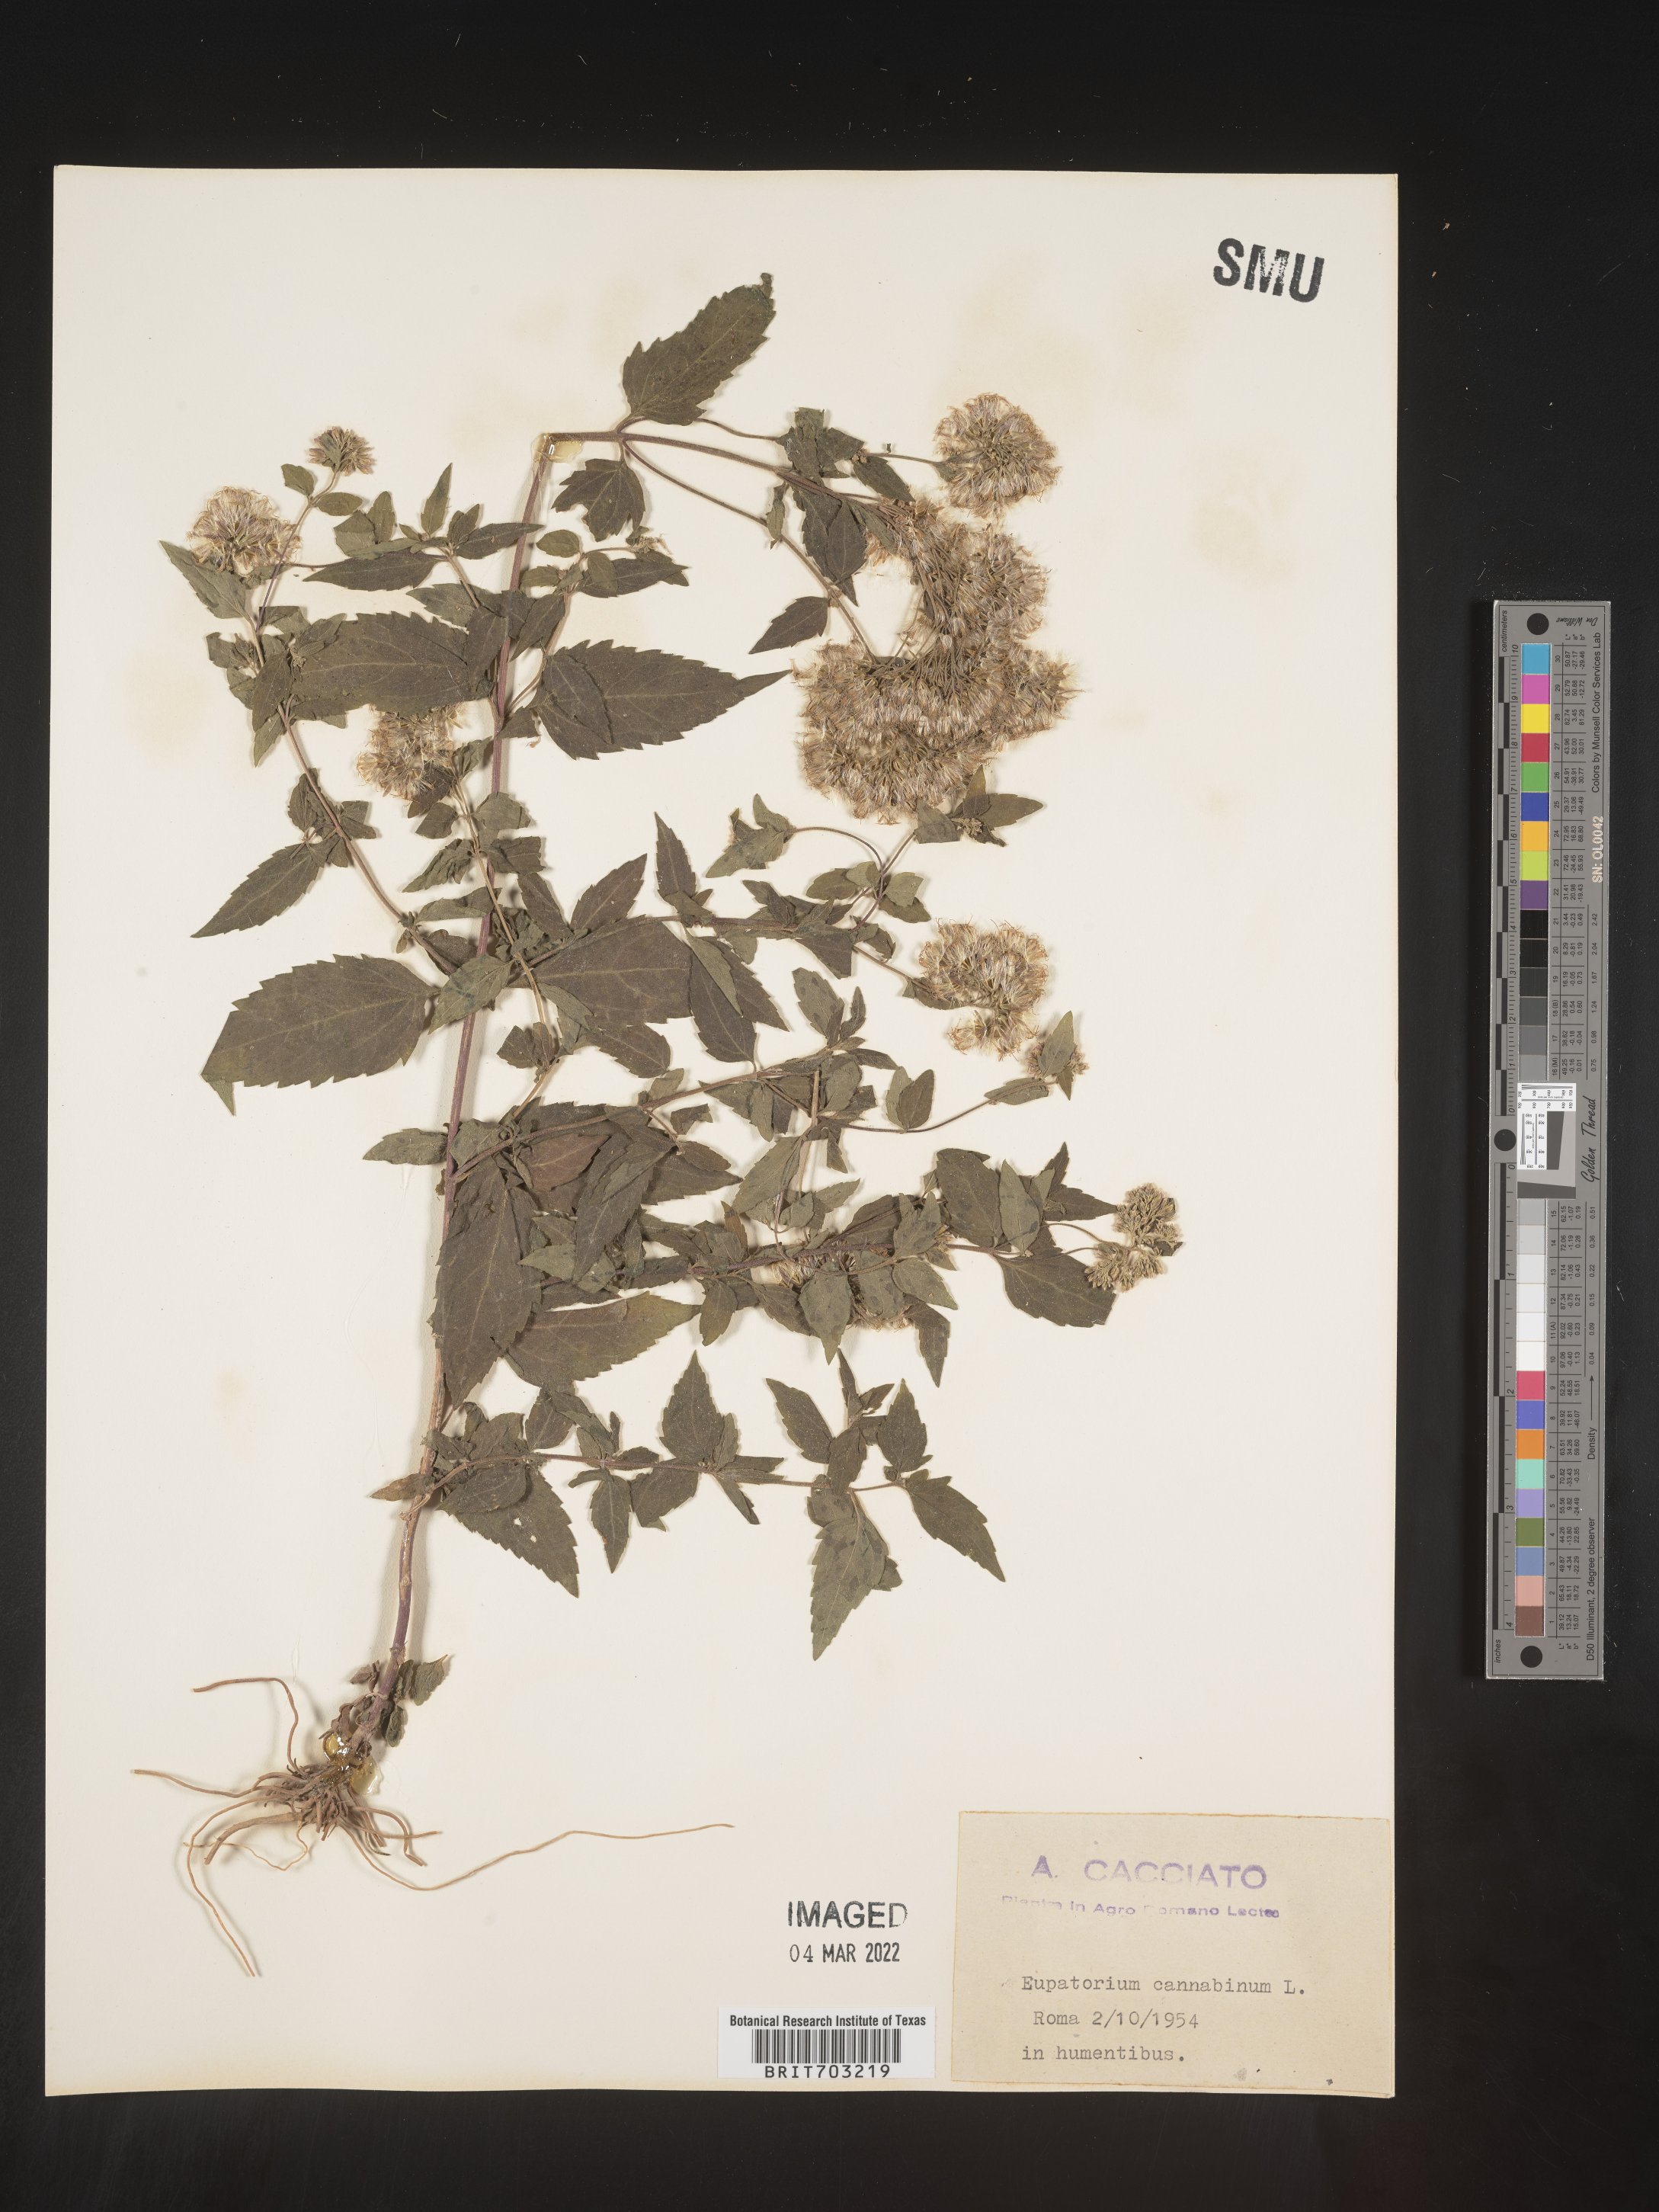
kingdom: Plantae
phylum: Tracheophyta
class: Magnoliopsida
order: Asterales
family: Asteraceae
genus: Eupatorium
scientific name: Eupatorium
